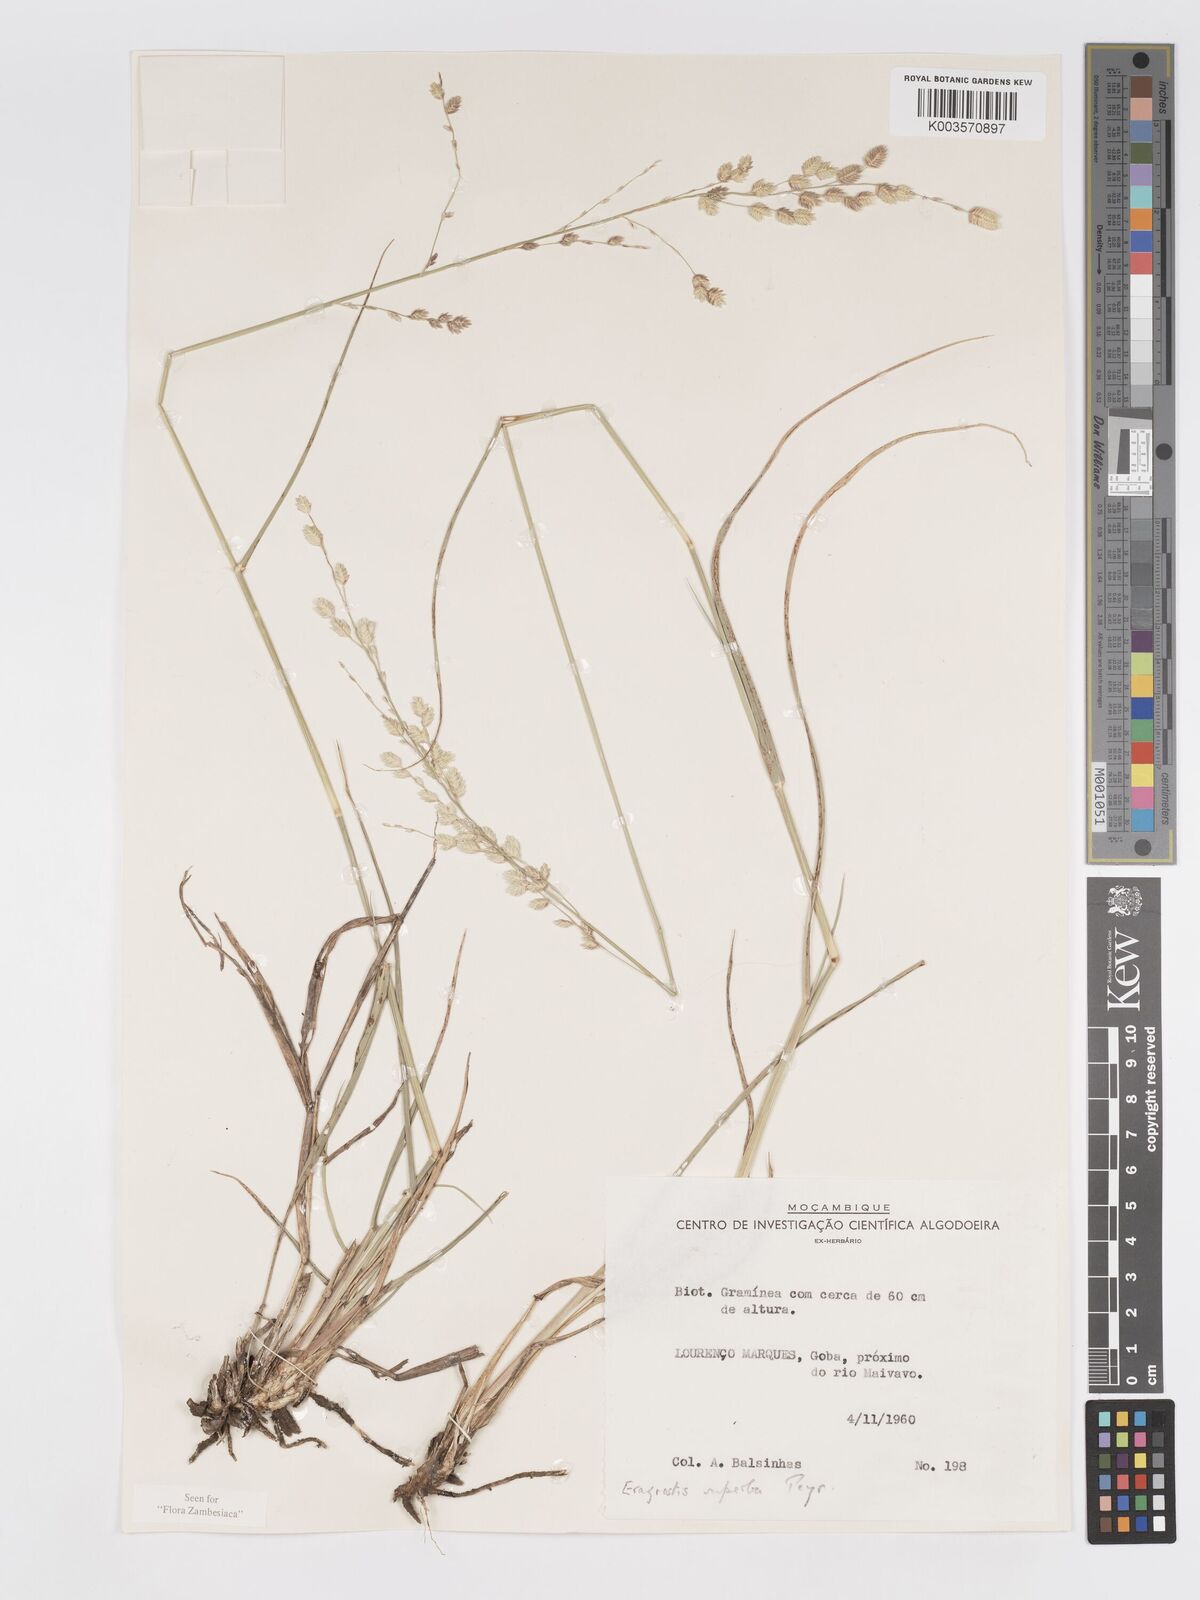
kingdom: Plantae
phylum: Tracheophyta
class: Liliopsida
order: Poales
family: Poaceae
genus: Eragrostis
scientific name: Eragrostis superba
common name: Wilman lovegrass
